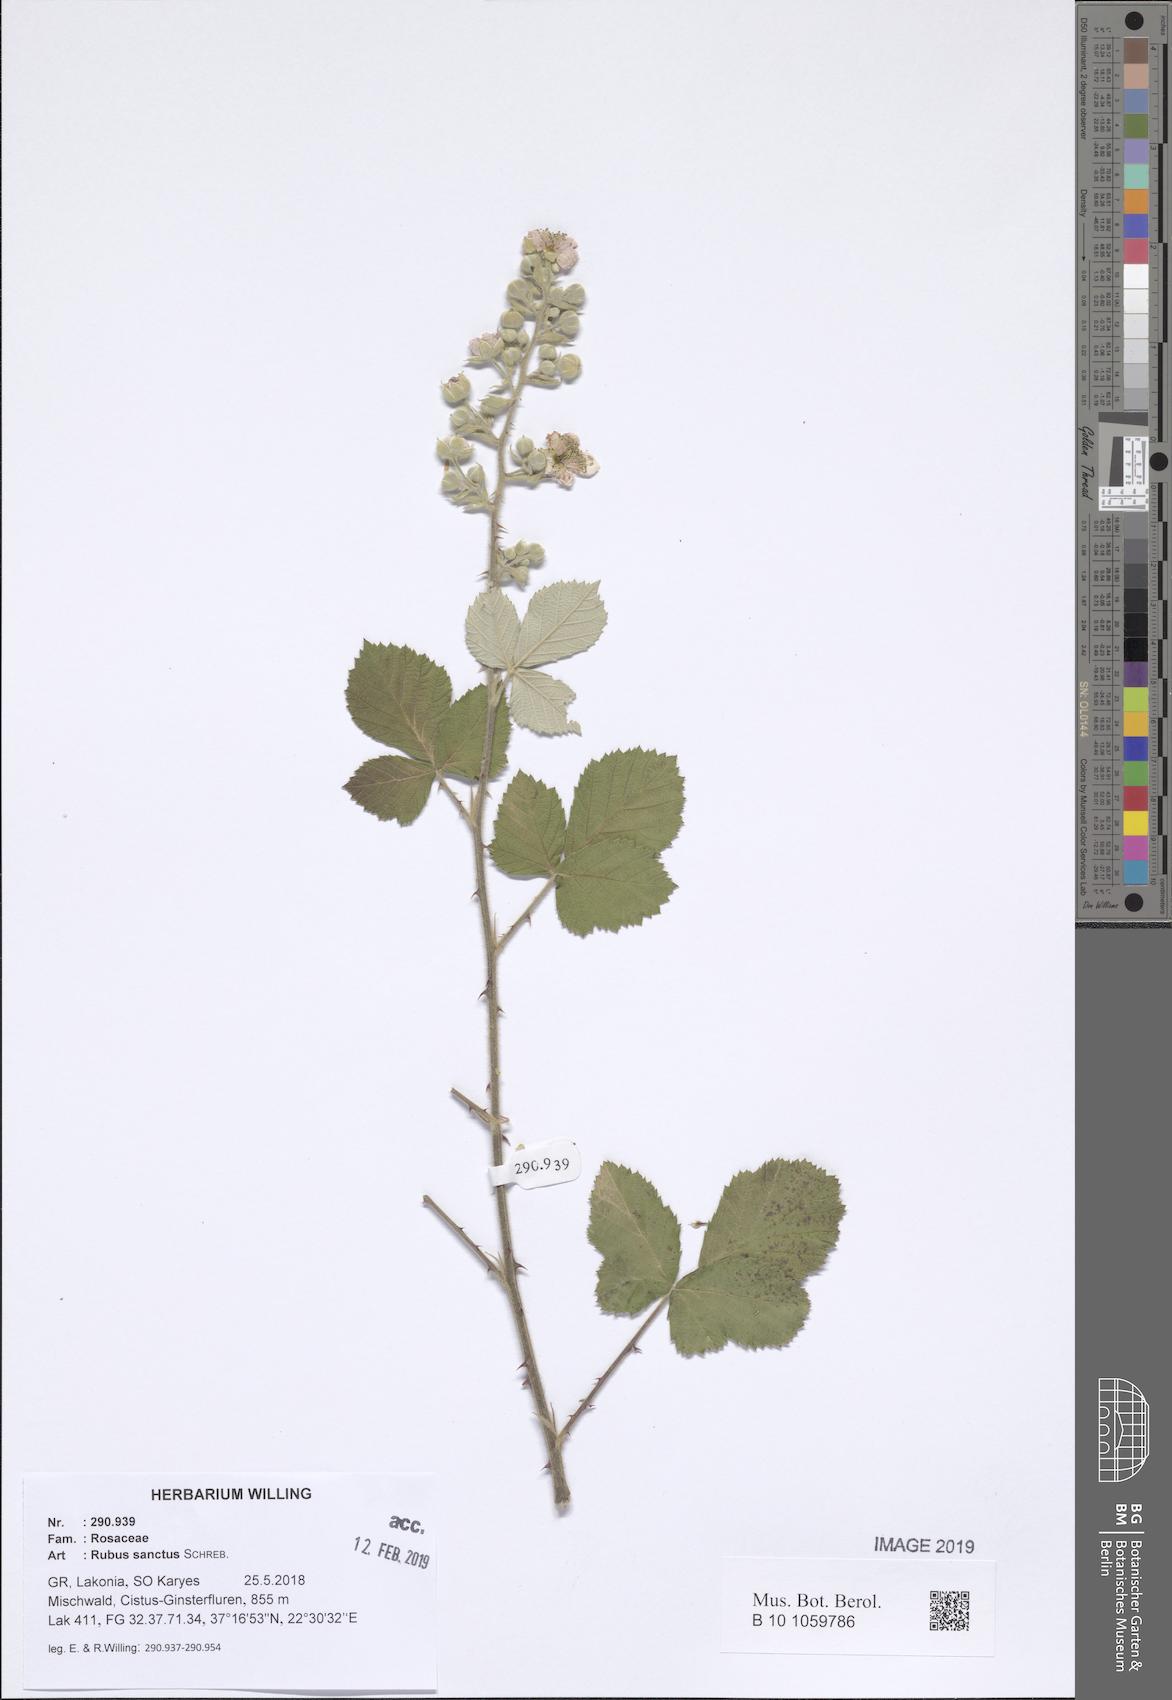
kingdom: Plantae
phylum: Tracheophyta
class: Magnoliopsida
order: Rosales
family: Rosaceae
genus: Rubus
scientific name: Rubus sanctus
